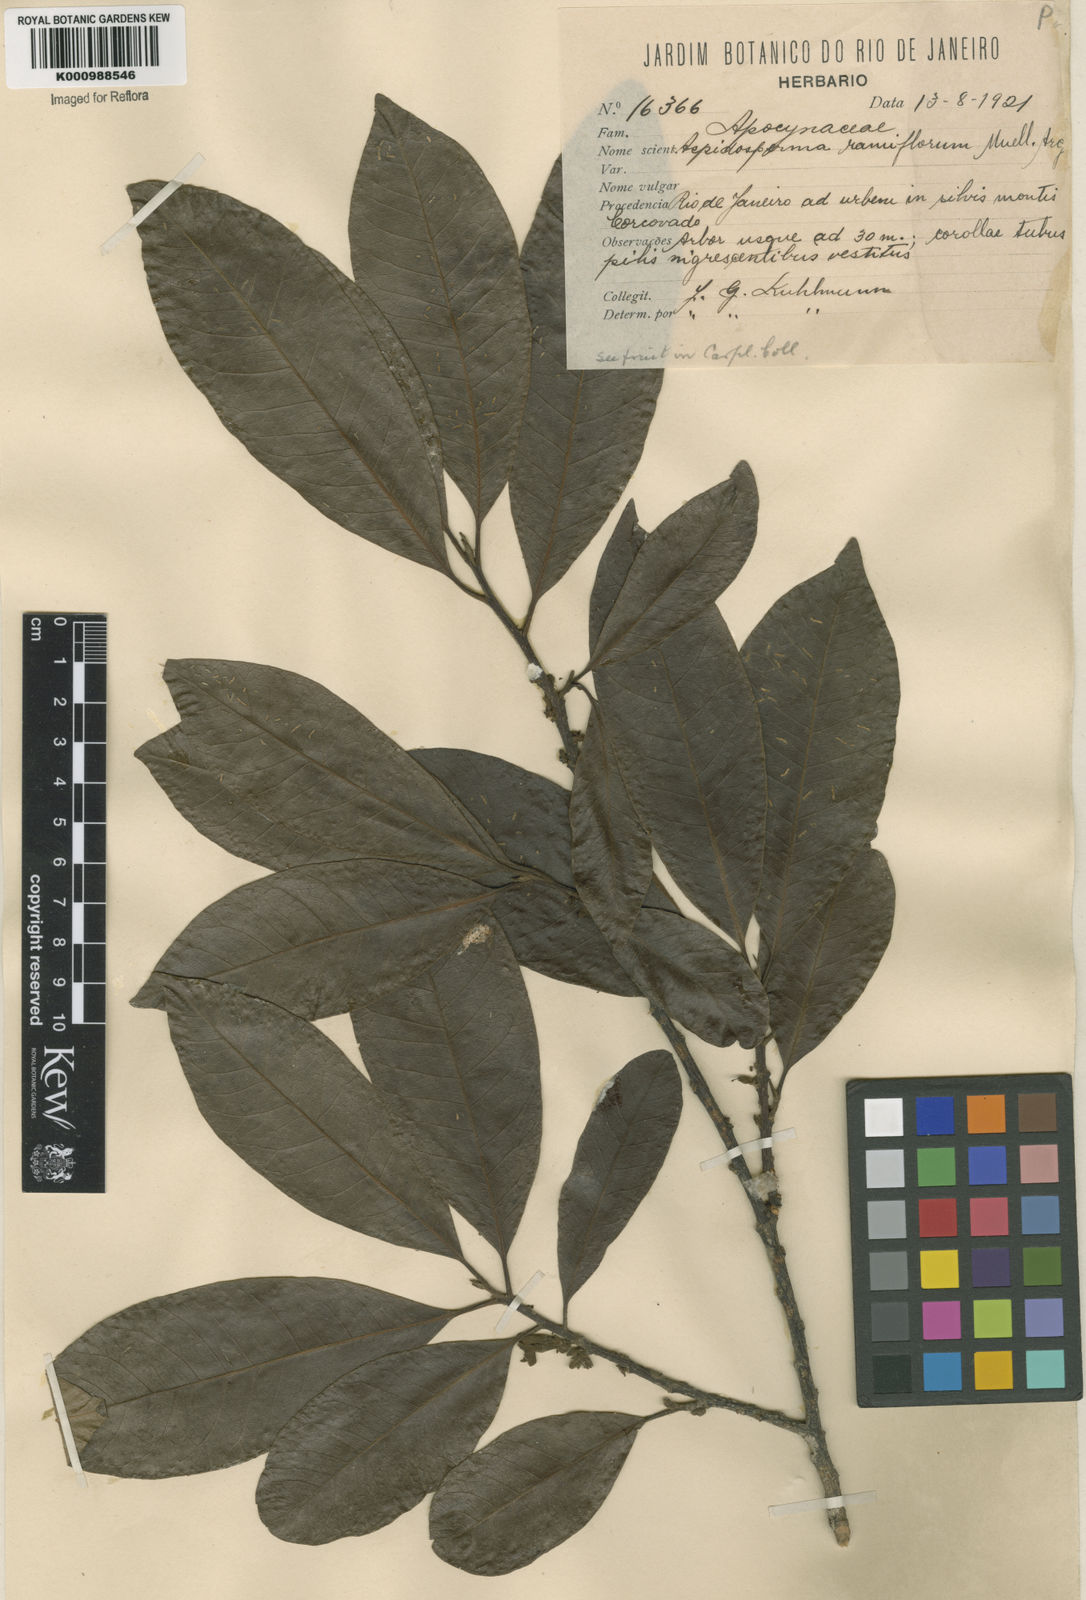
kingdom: Plantae
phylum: Tracheophyta
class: Magnoliopsida
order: Gentianales
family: Apocynaceae
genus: Aspidosperma
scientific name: Aspidosperma
